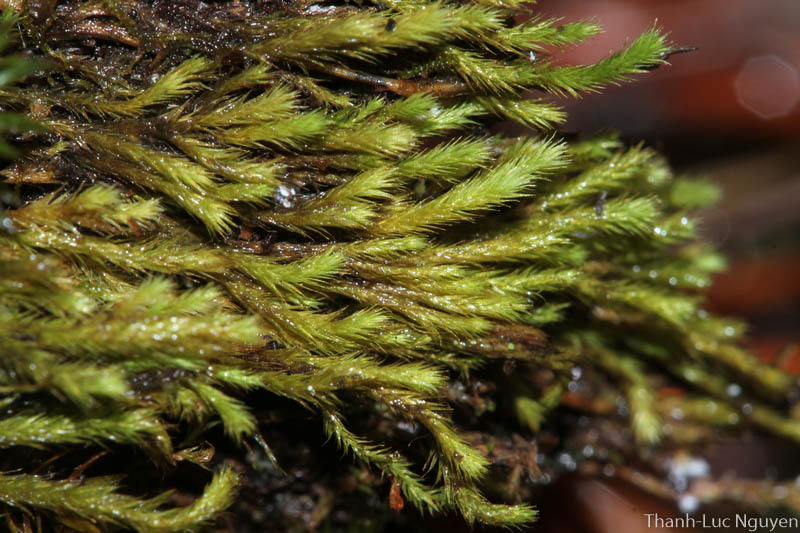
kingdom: Plantae
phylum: Bryophyta
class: Bryopsida
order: Bartramiales
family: Bartramiaceae
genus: Philonotis
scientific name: Philonotis thwaitesii
